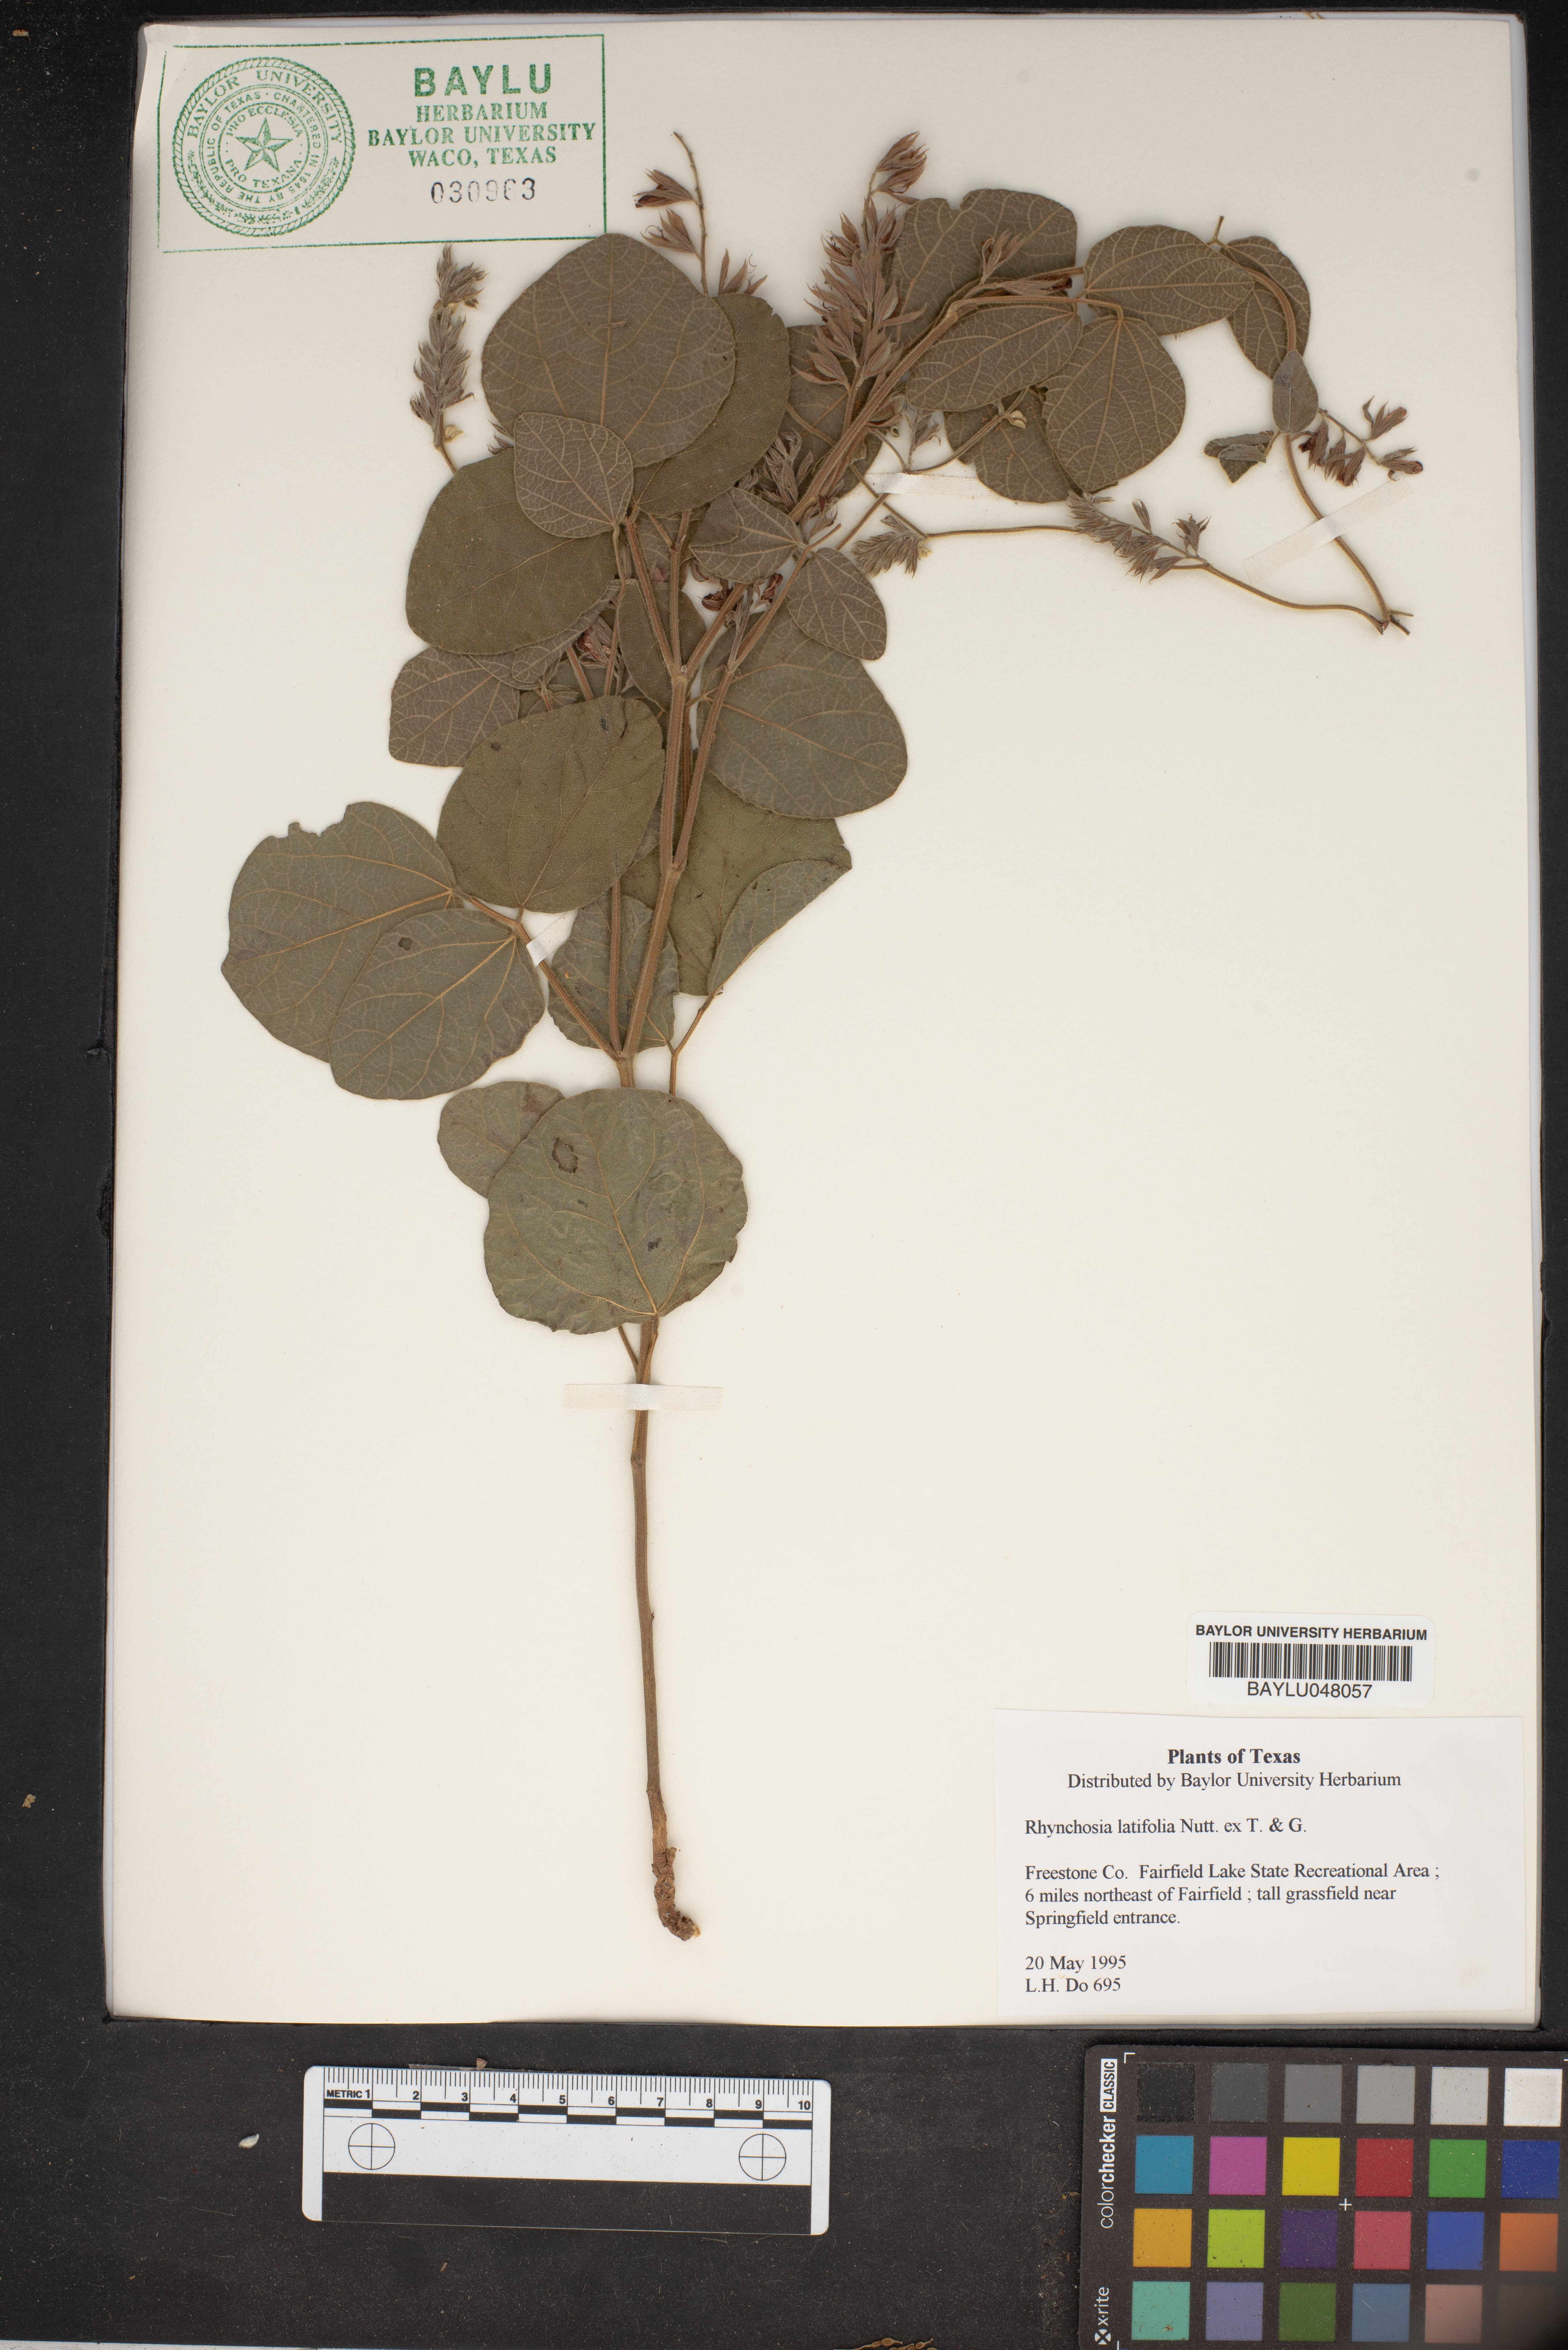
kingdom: Plantae
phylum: Tracheophyta
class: Magnoliopsida
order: Fabales
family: Fabaceae
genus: Rhynchosia
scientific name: Rhynchosia latifolia
